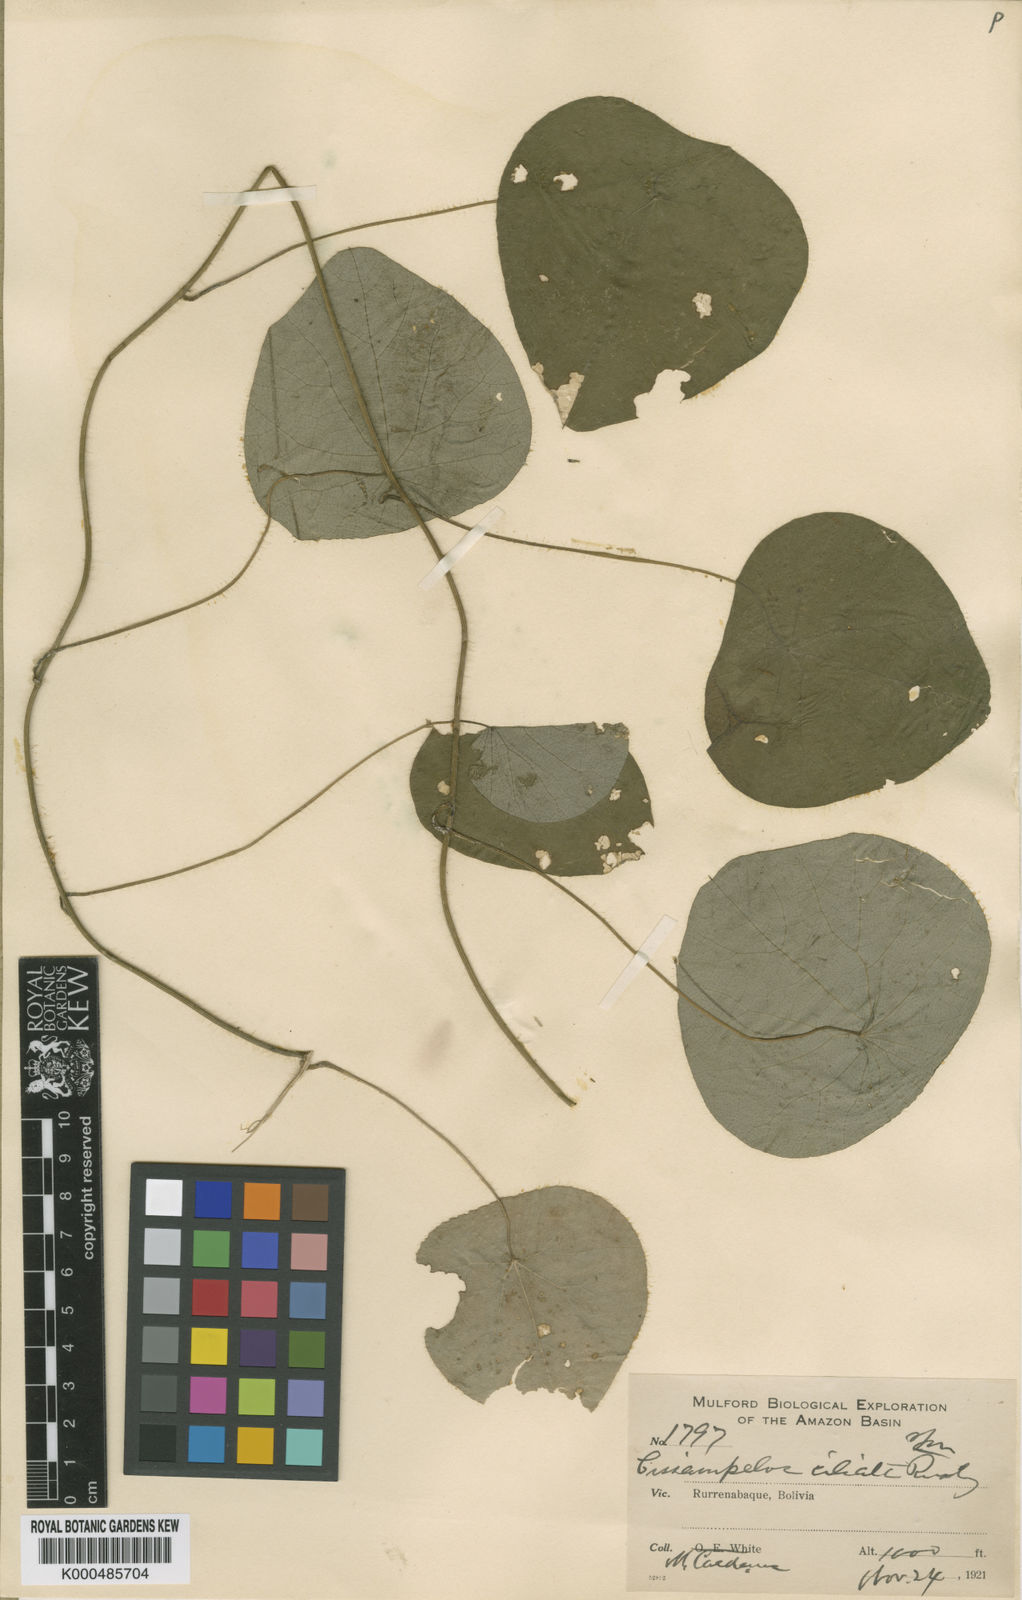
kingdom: Plantae
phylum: Tracheophyta
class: Magnoliopsida
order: Ranunculales
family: Menispermaceae
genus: Cissampelos
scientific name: Cissampelos tropaeolifolia
